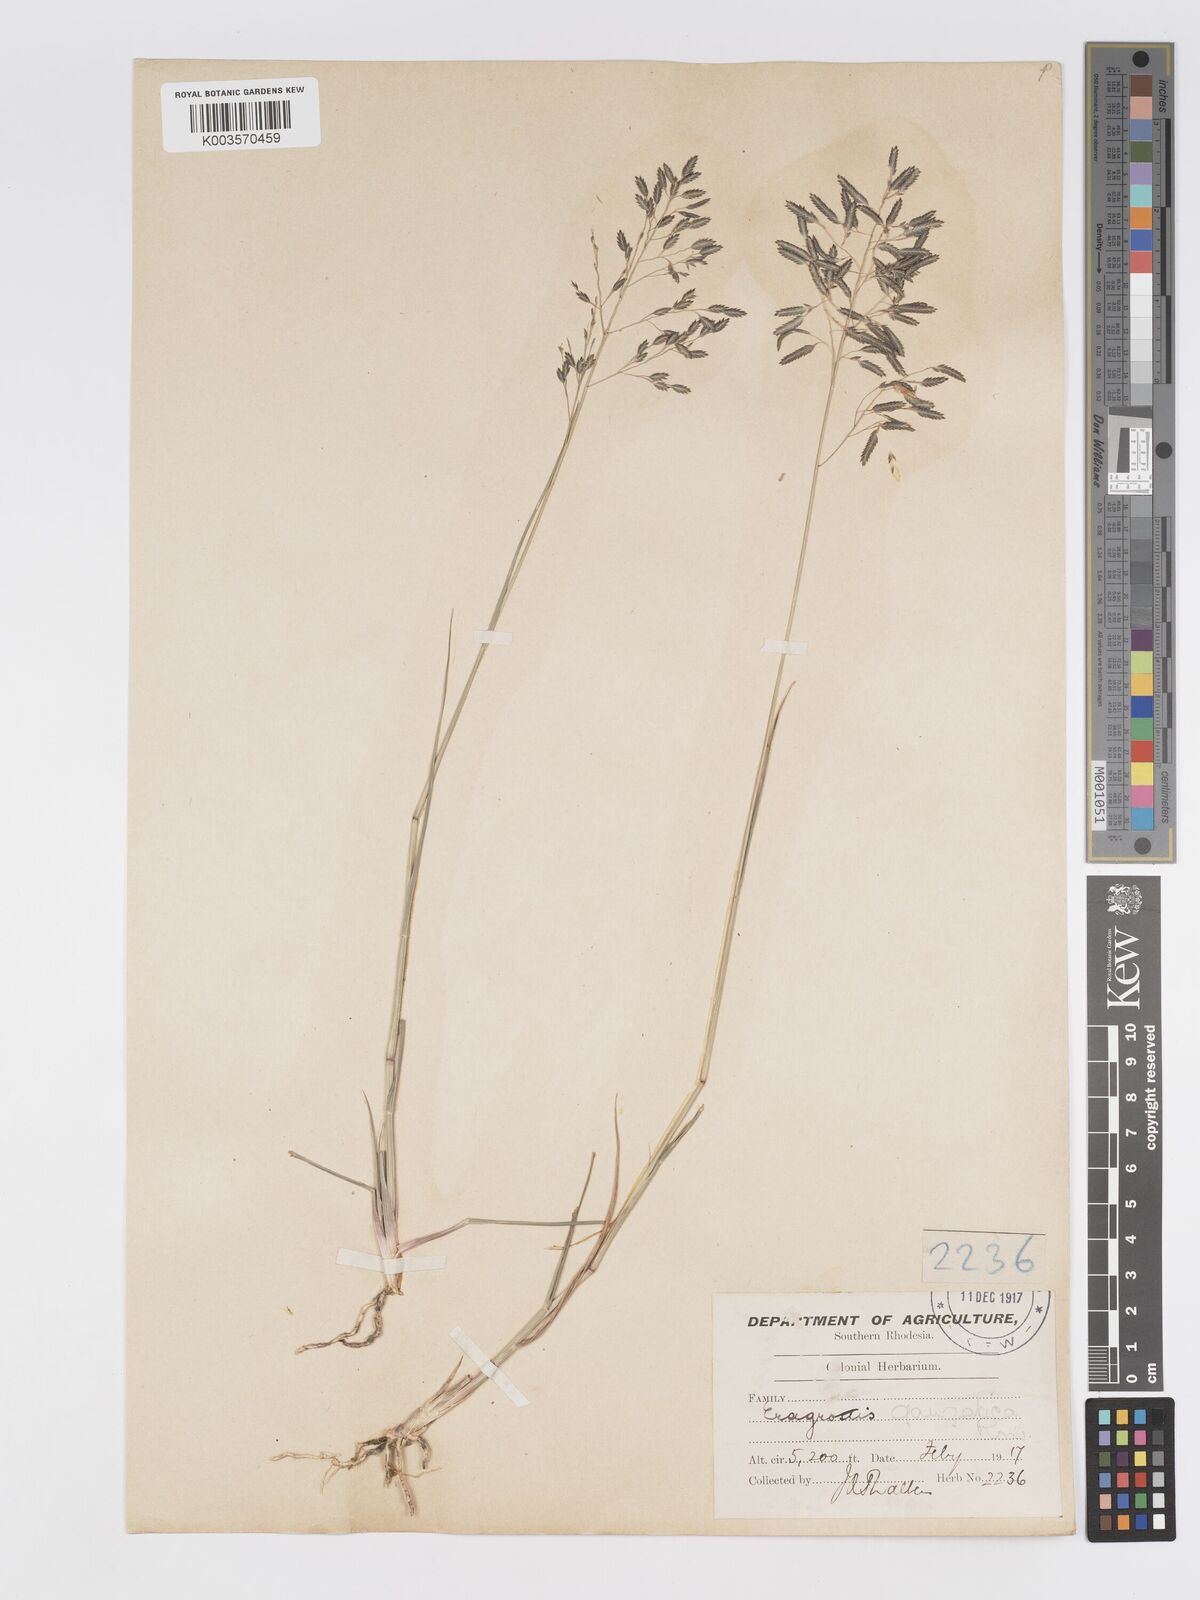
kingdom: Plantae
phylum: Tracheophyta
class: Liliopsida
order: Poales
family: Poaceae
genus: Eragrostis
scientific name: Eragrostis inamoena
